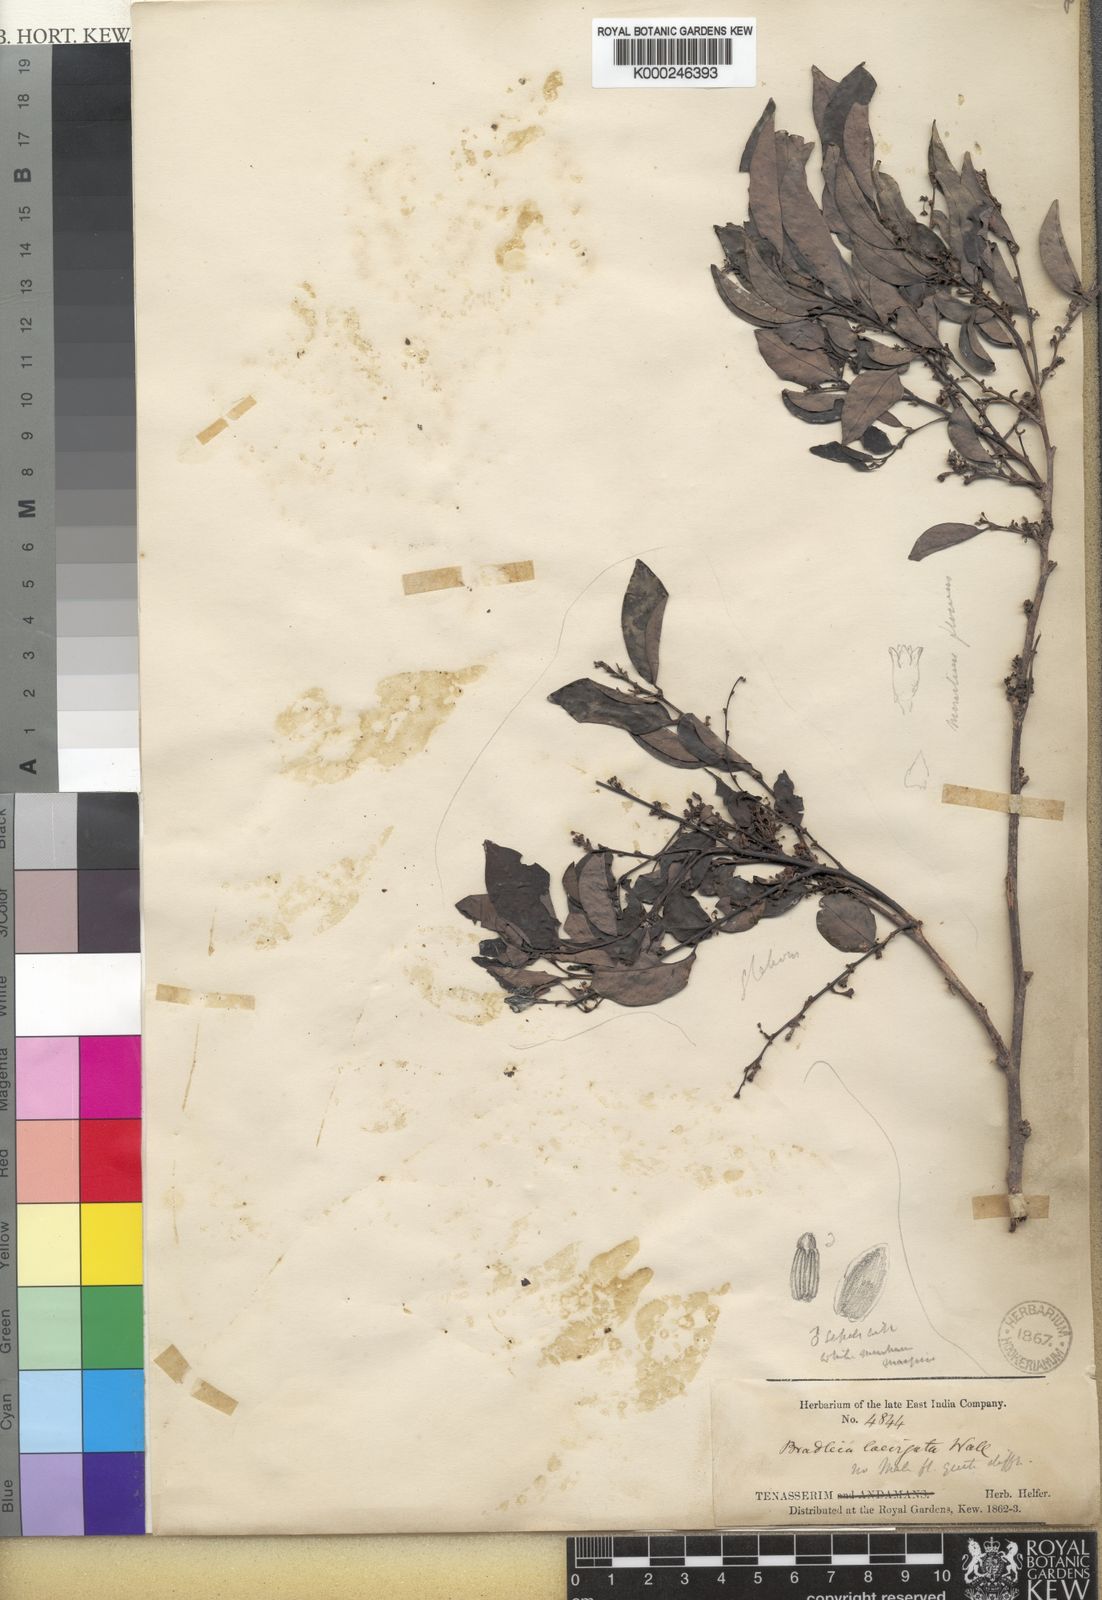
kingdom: Plantae
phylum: Tracheophyta
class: Magnoliopsida
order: Malpighiales
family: Phyllanthaceae
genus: Glochidion
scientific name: Glochidion lutescens
